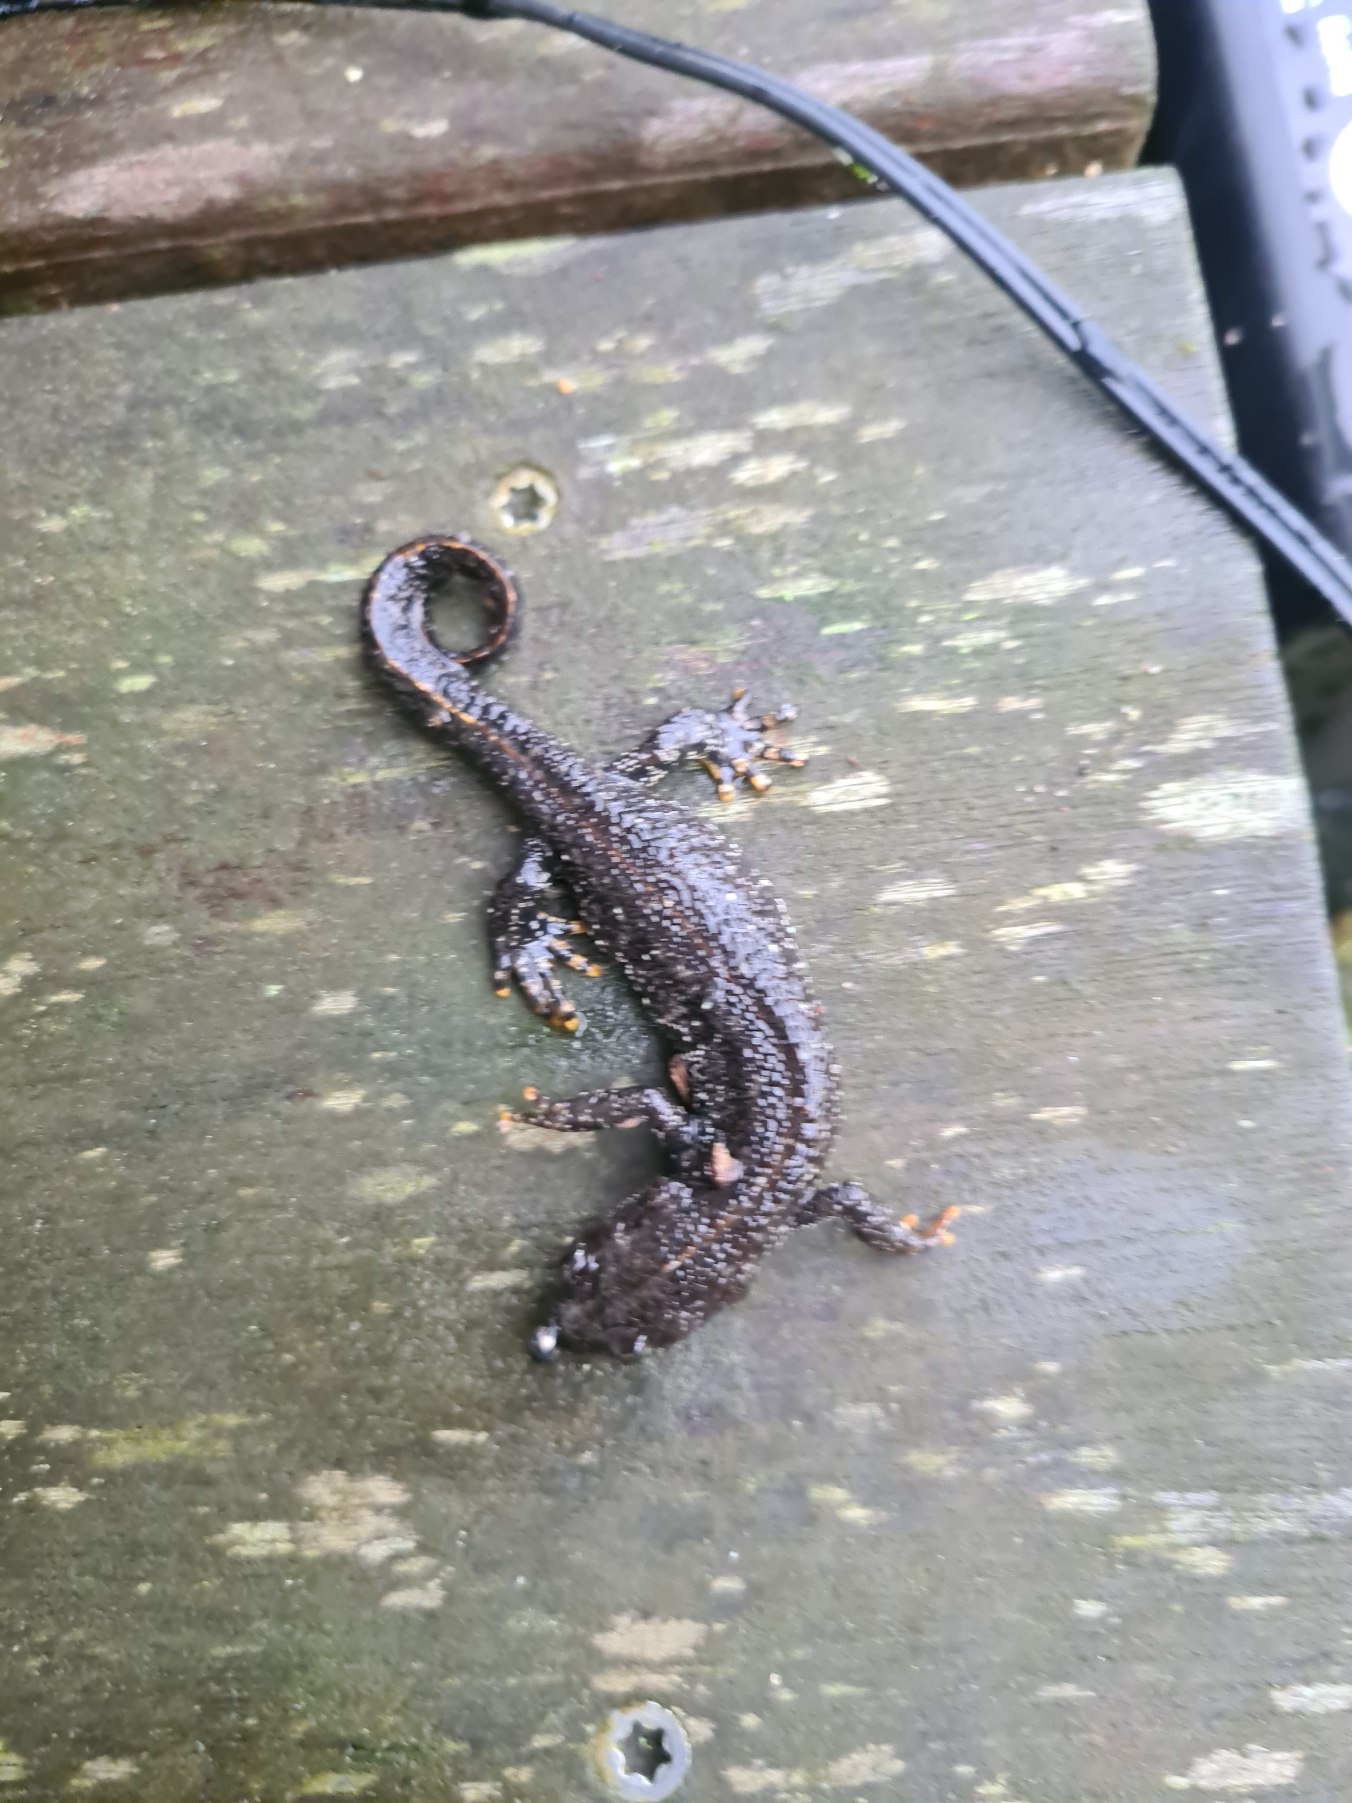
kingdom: Animalia
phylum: Chordata
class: Amphibia
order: Caudata
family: Salamandridae
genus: Triturus
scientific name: Triturus cristatus
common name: Stor vandsalamander
